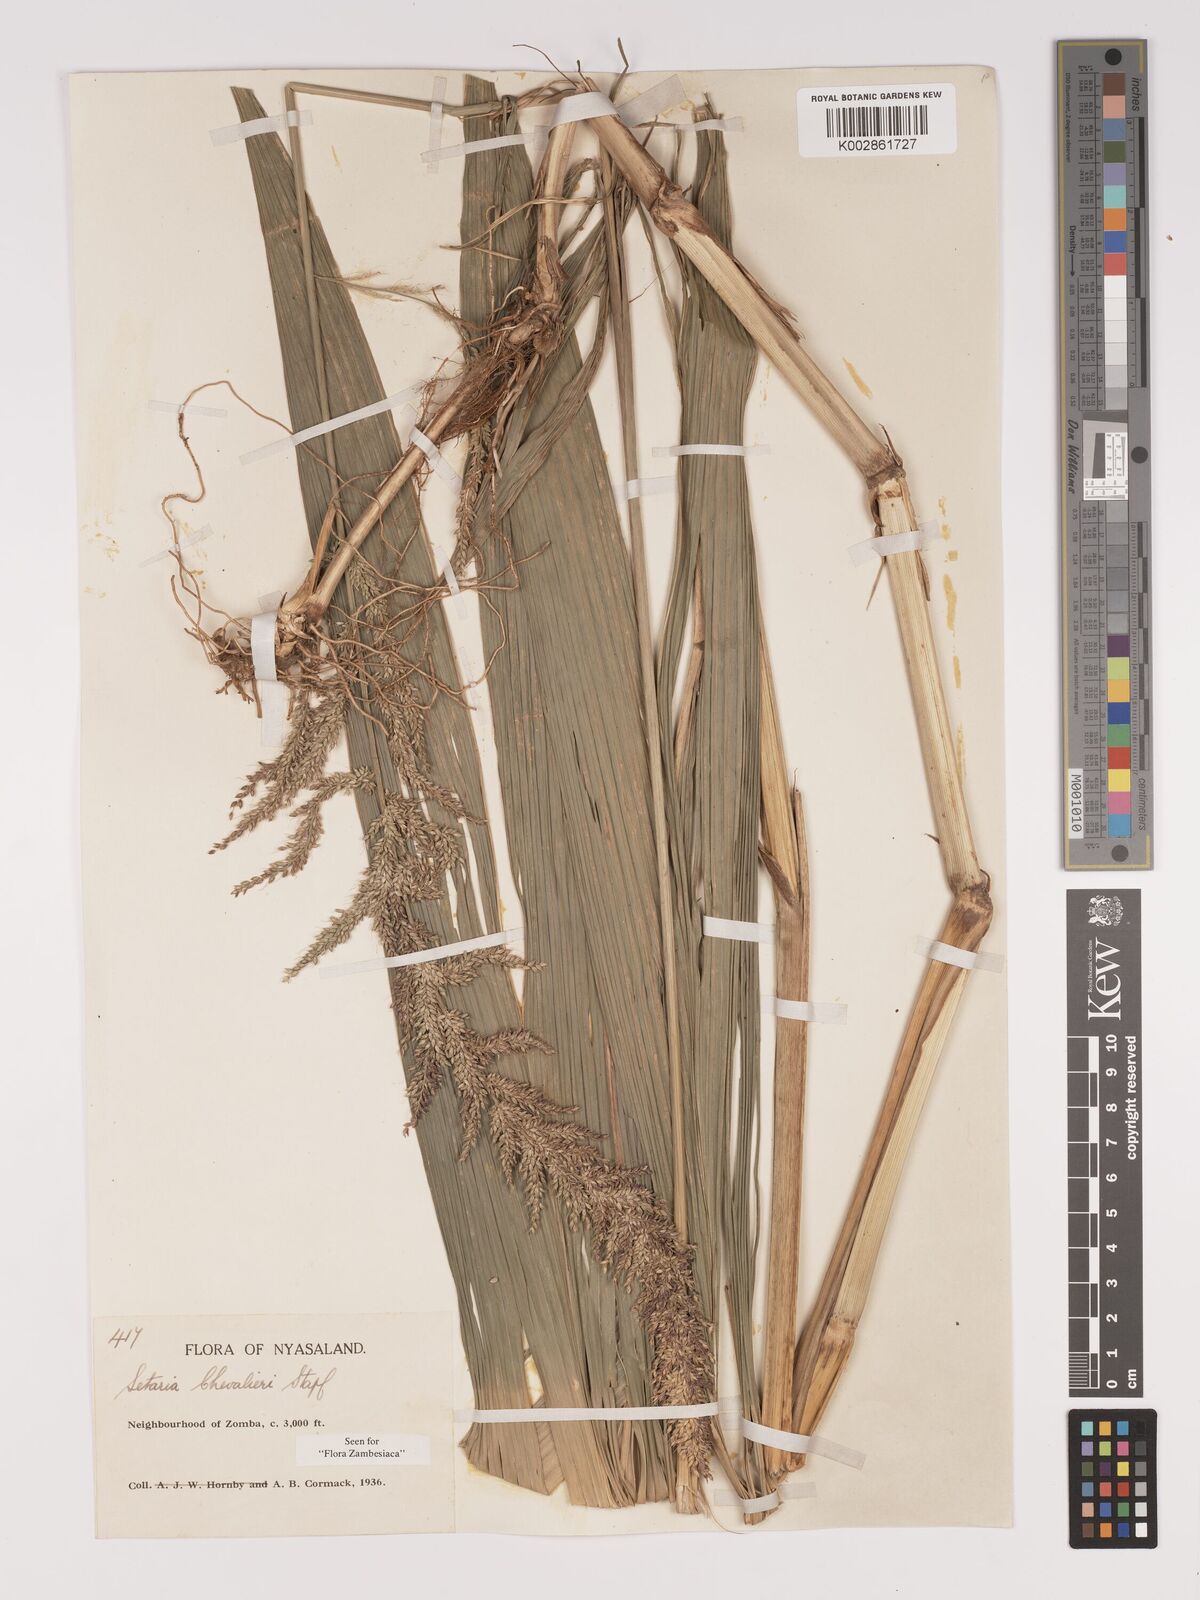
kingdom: Plantae
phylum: Tracheophyta
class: Liliopsida
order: Poales
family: Poaceae
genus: Setaria
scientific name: Setaria megaphylla
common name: Bigleaf bristlegrass
